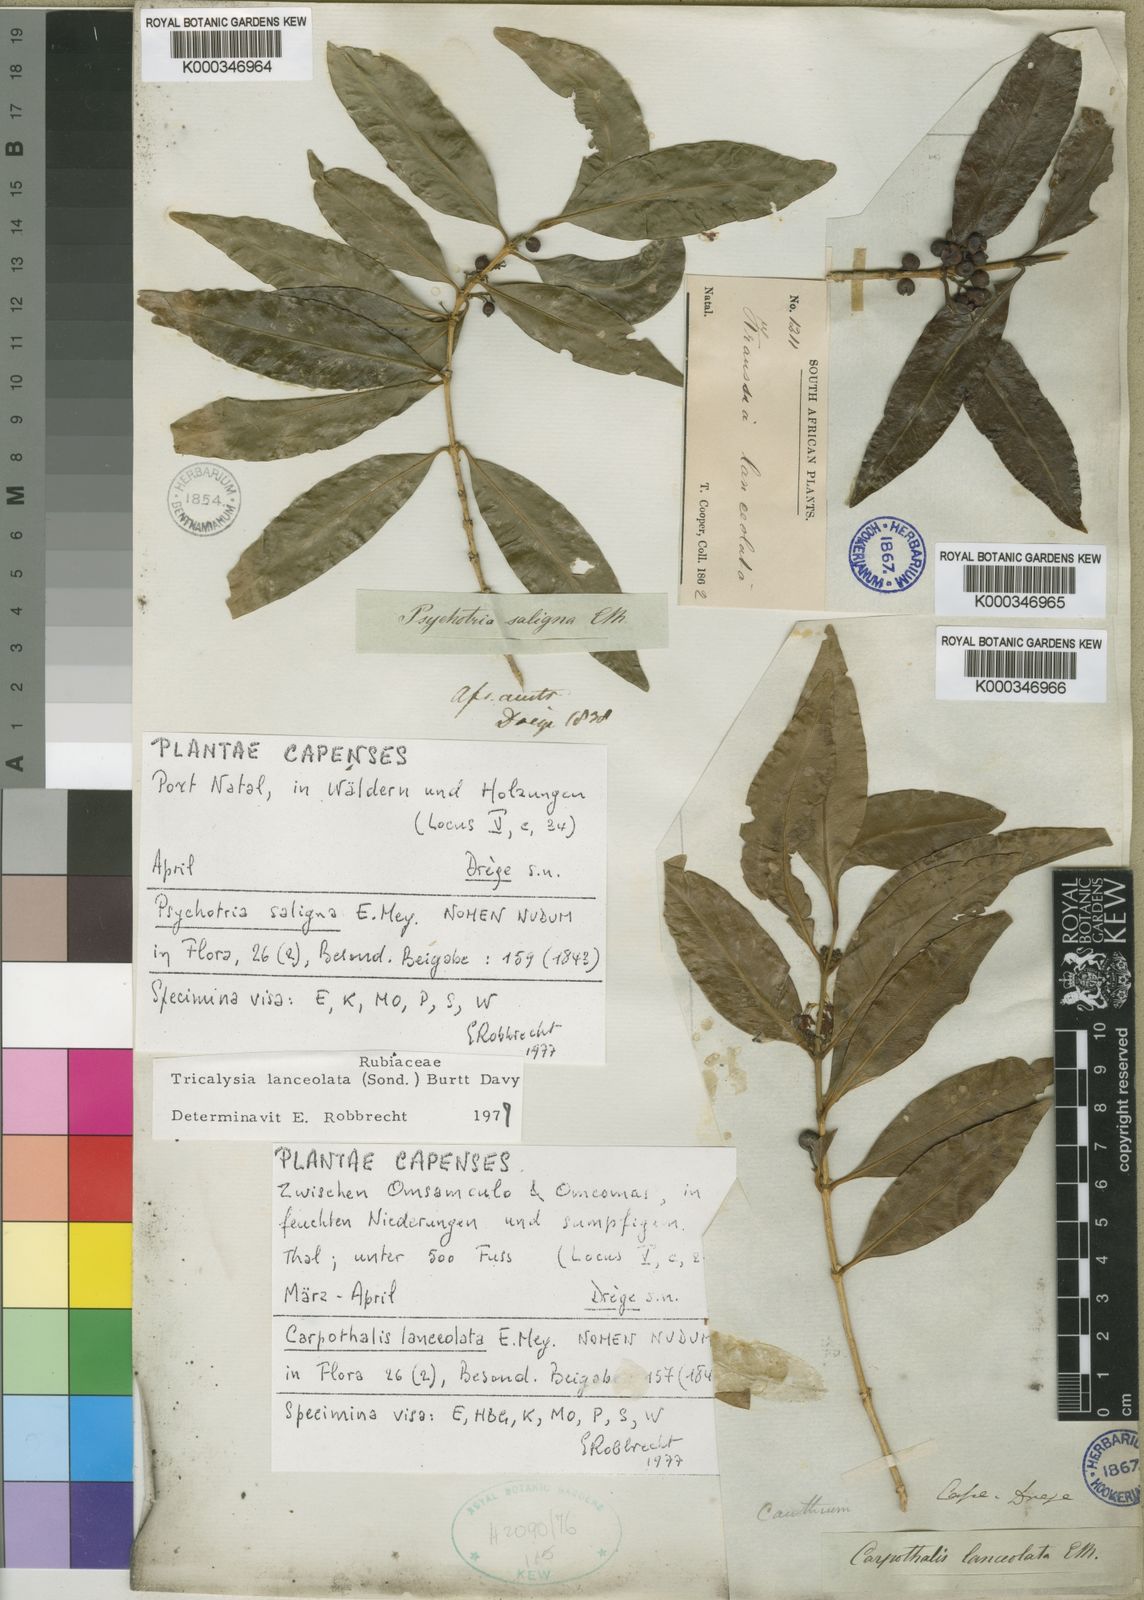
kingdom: Plantae
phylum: Tracheophyta
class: Magnoliopsida
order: Gentianales
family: Rubiaceae
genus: Empogona
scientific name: Empogona lanceolata
